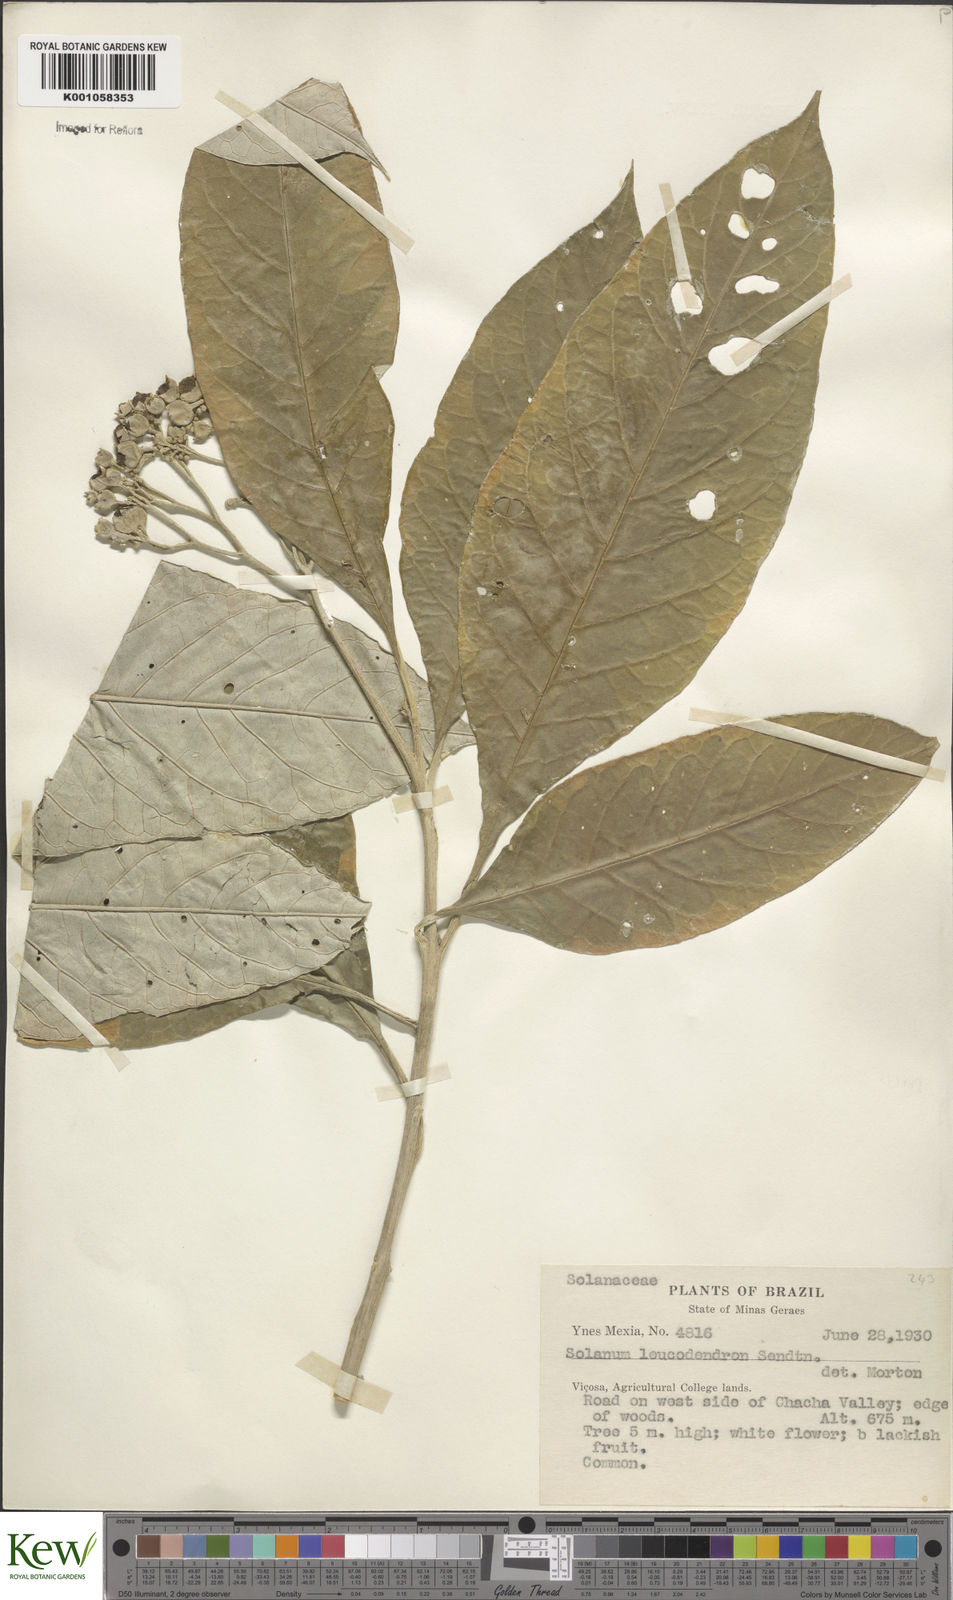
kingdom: Plantae
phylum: Tracheophyta
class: Magnoliopsida
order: Solanales
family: Solanaceae
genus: Solanum
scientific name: Solanum leucodendron
